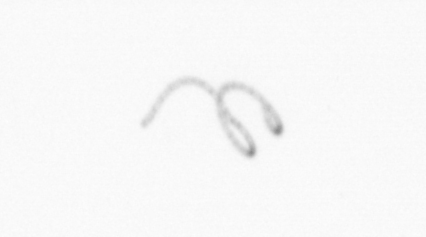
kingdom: Chromista
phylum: Ochrophyta
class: Bacillariophyceae
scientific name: Bacillariophyceae
